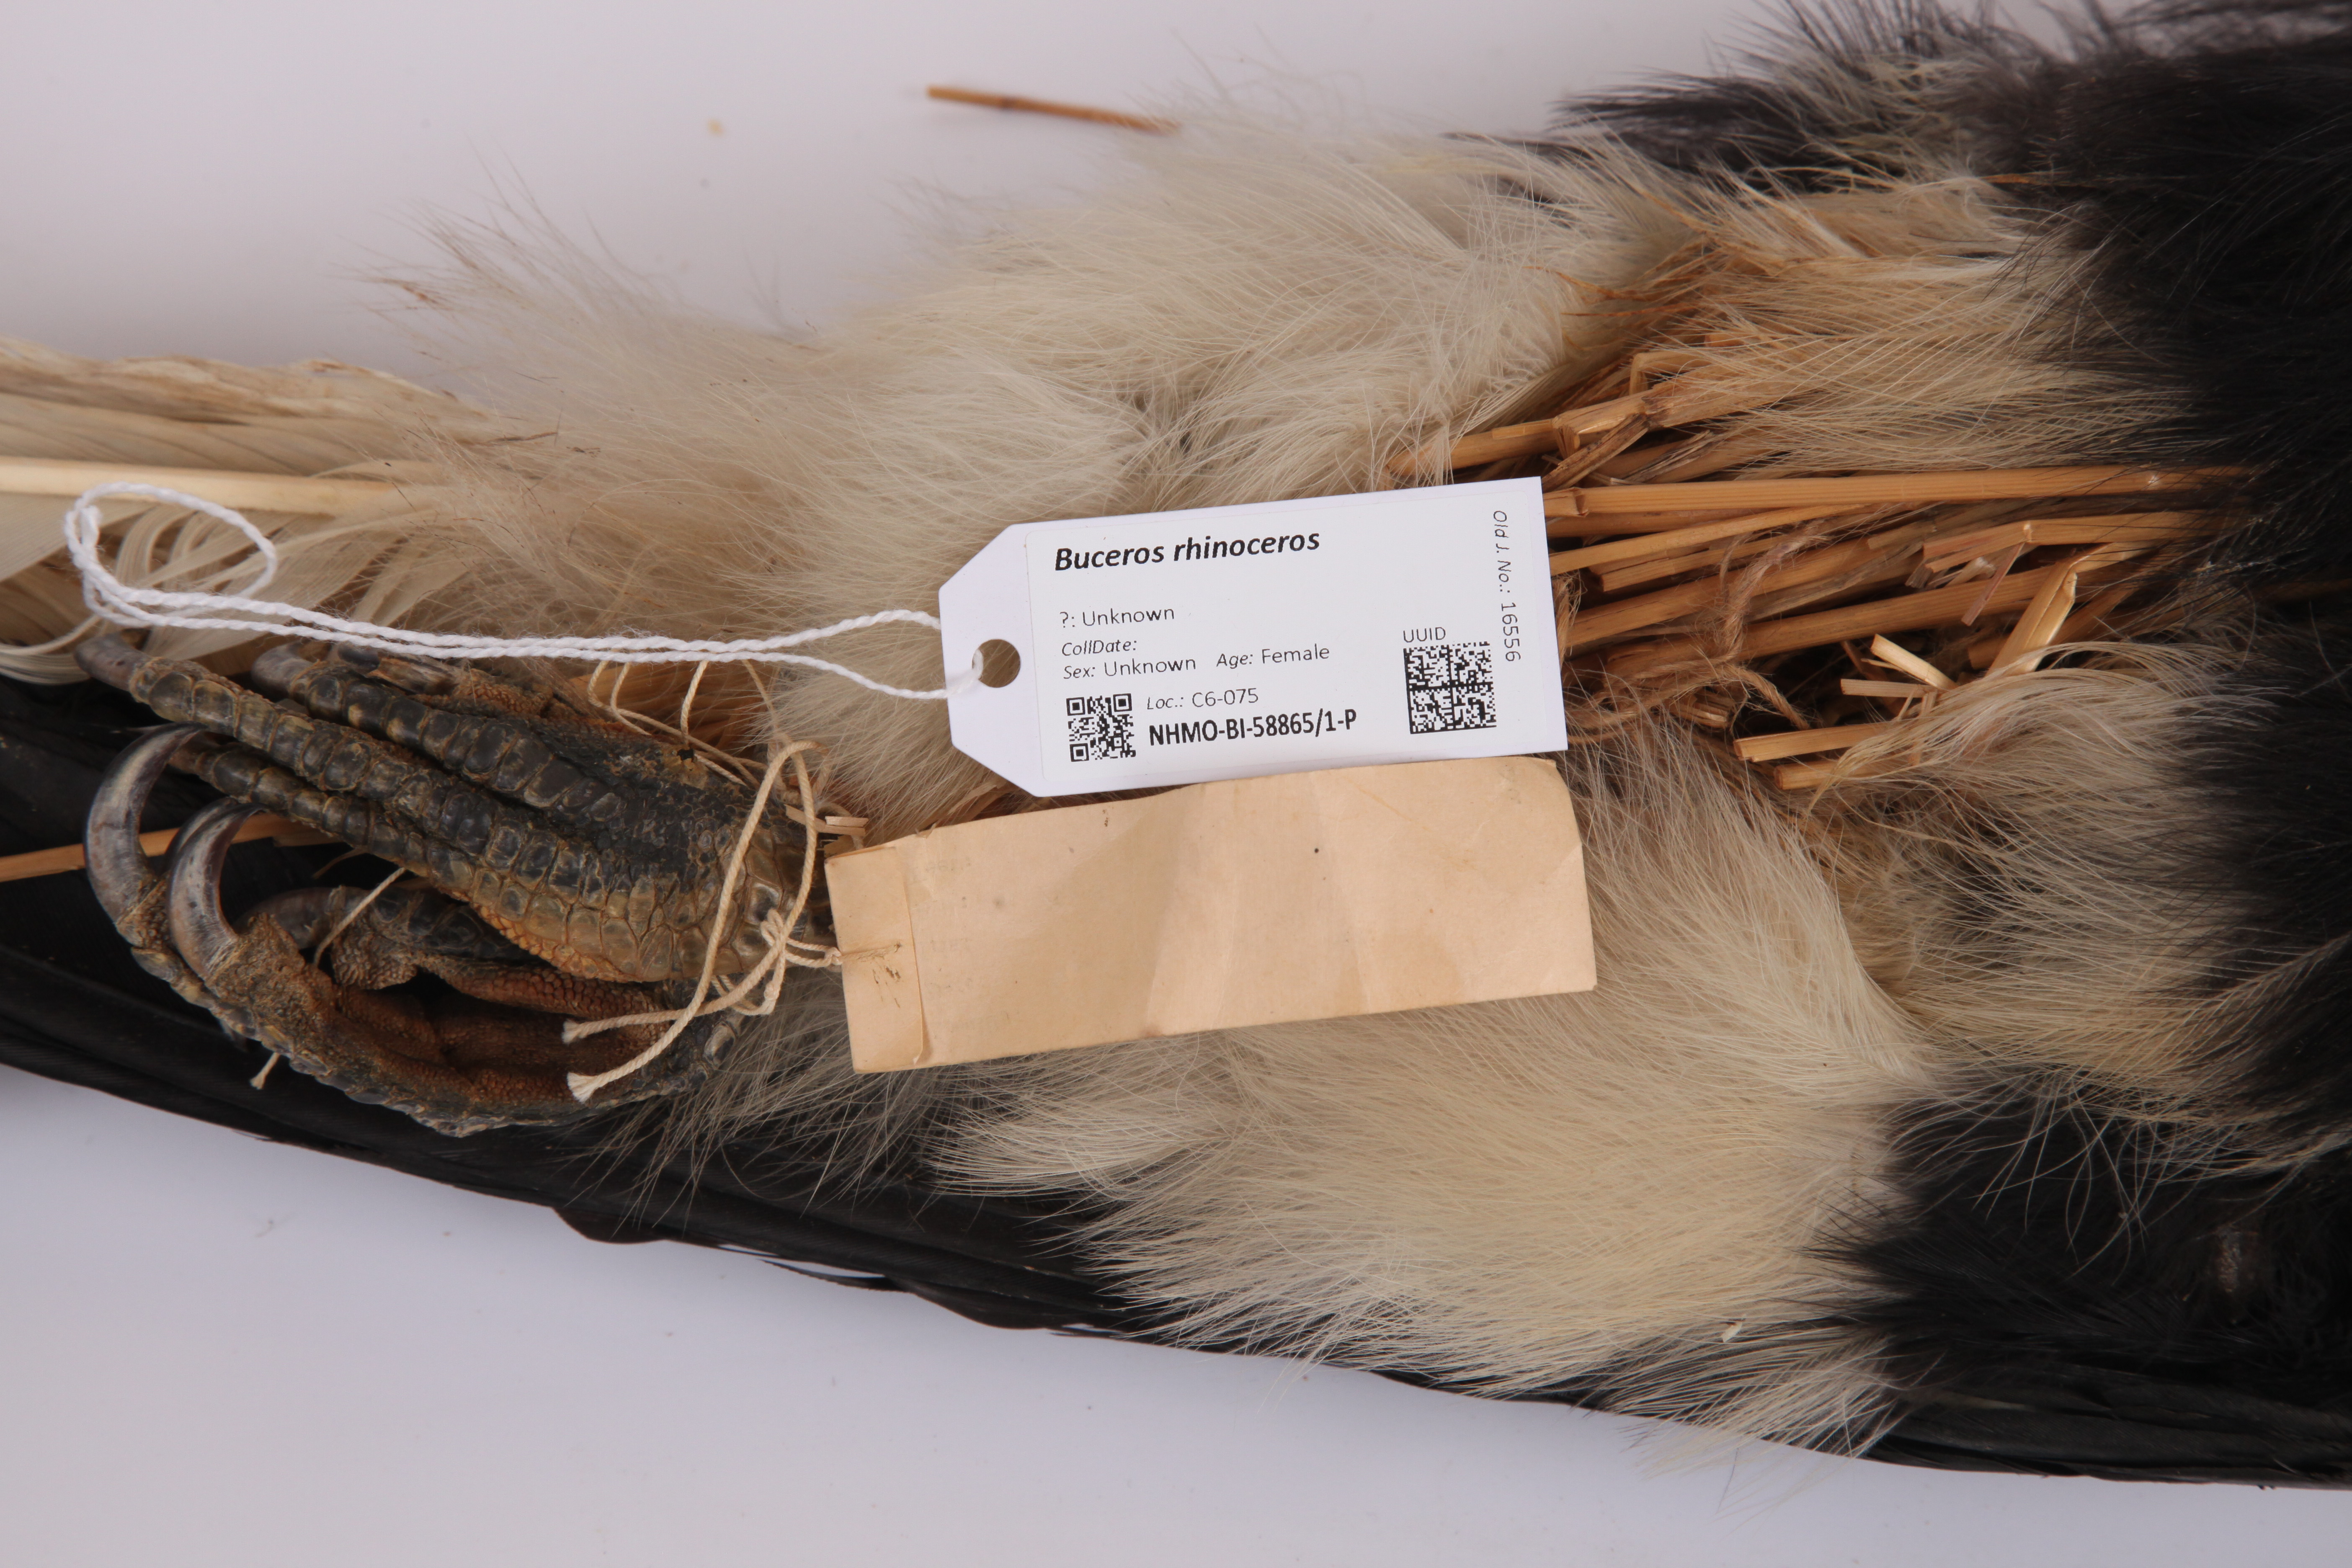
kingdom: Animalia
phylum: Chordata
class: Aves
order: Bucerotiformes
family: Bucerotidae
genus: Buceros
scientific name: Buceros rhinoceros
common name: Rhinoceros hornbill
